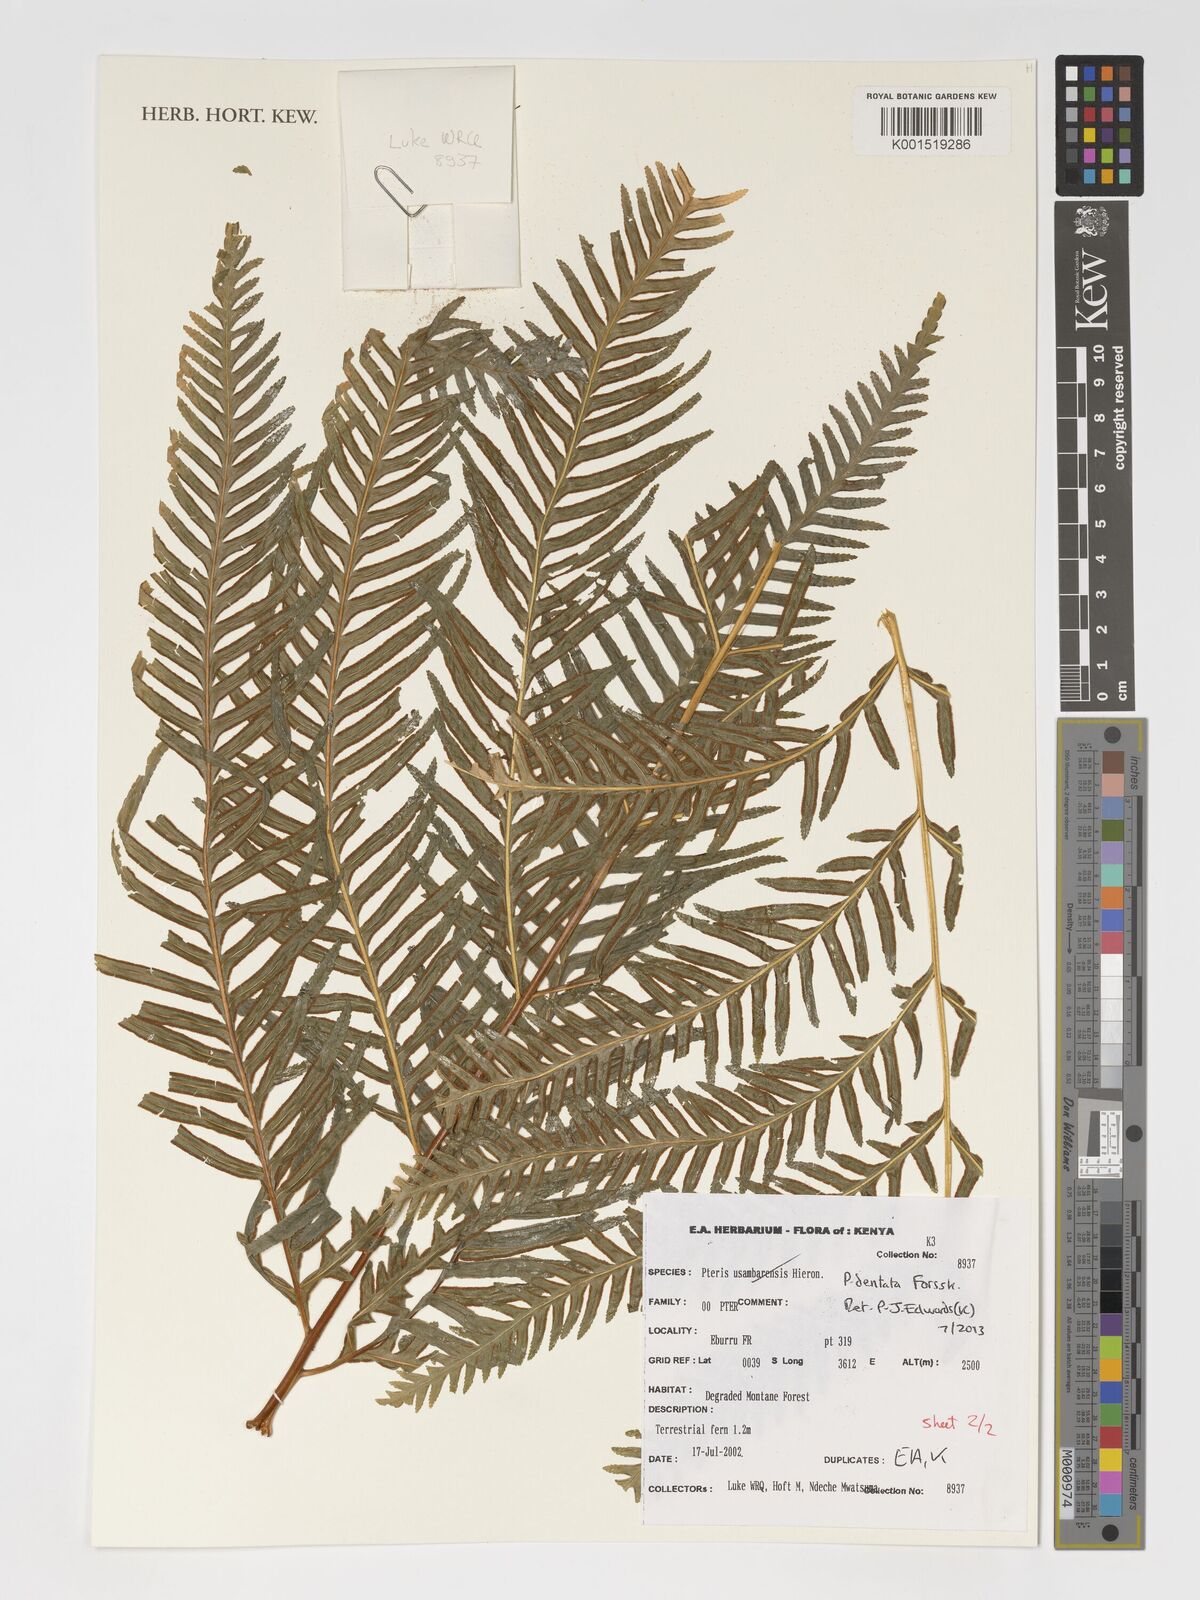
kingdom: Plantae
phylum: Tracheophyta
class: Polypodiopsida
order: Polypodiales
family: Pteridaceae
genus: Pteris
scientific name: Pteris dentata
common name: Toothed brake
